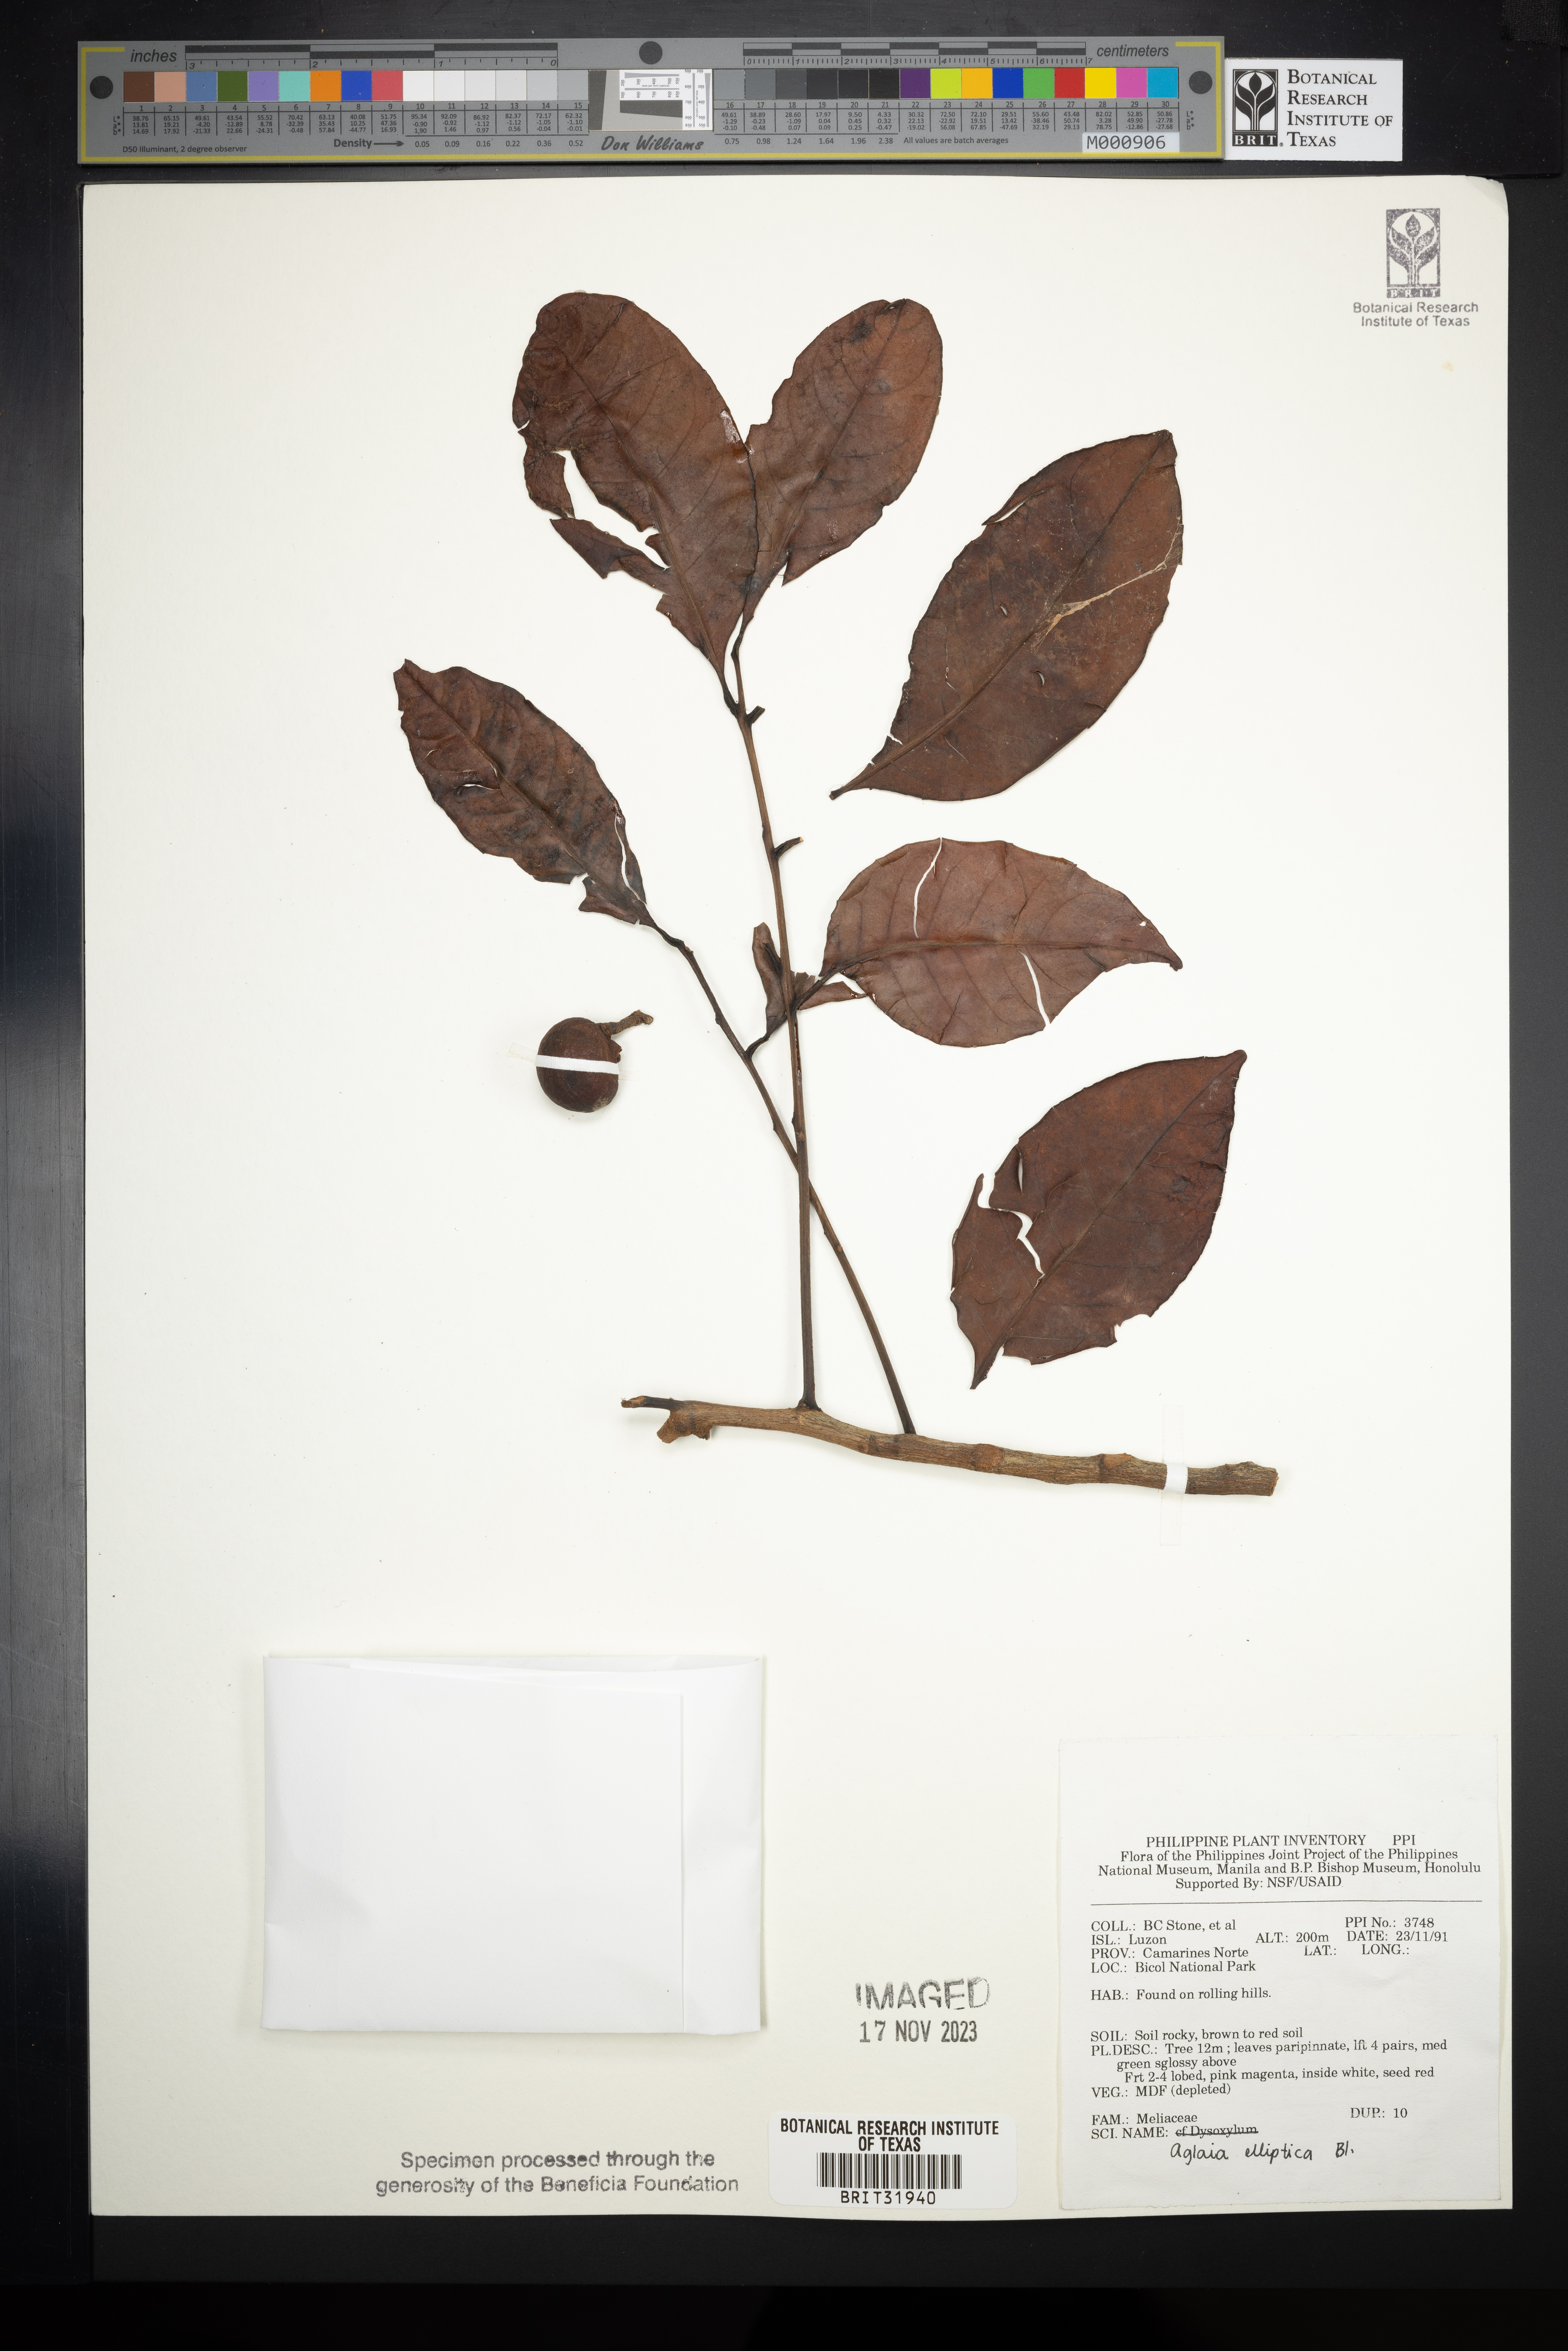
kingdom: Plantae
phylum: Tracheophyta
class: Magnoliopsida
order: Sapindales
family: Meliaceae
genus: Aglaia
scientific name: Aglaia elliptica
